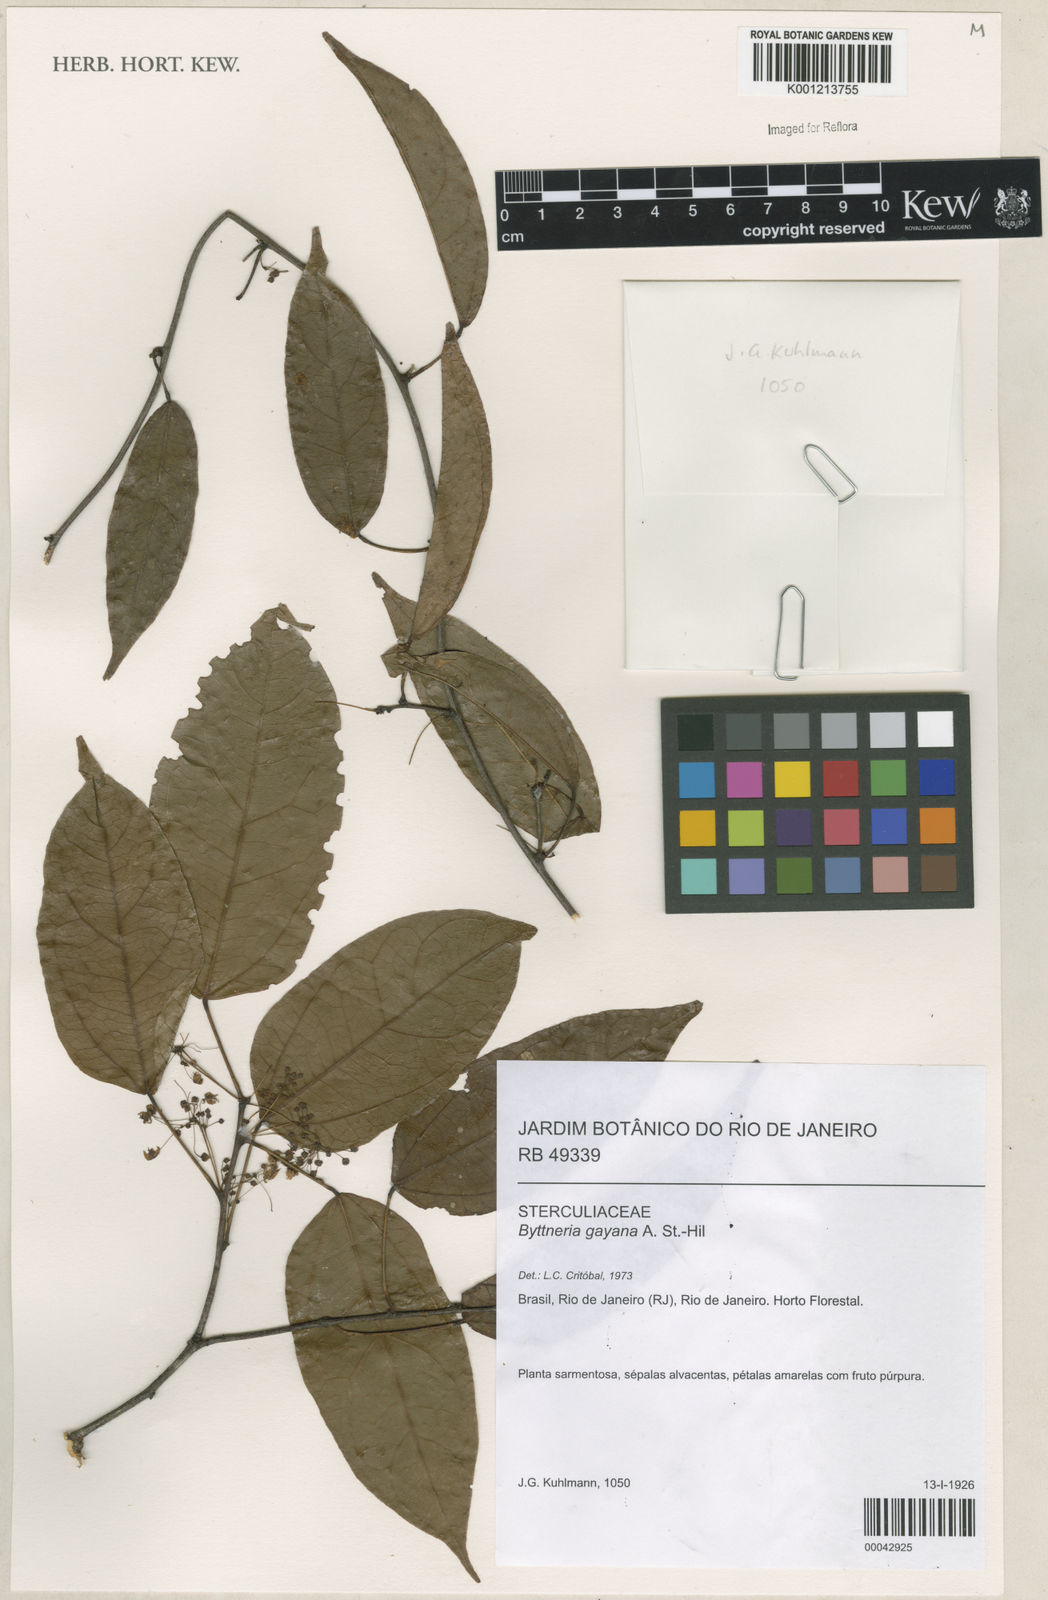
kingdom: Plantae
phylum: Tracheophyta
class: Magnoliopsida
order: Malvales
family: Malvaceae
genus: Byttneria
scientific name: Byttneria gayana
